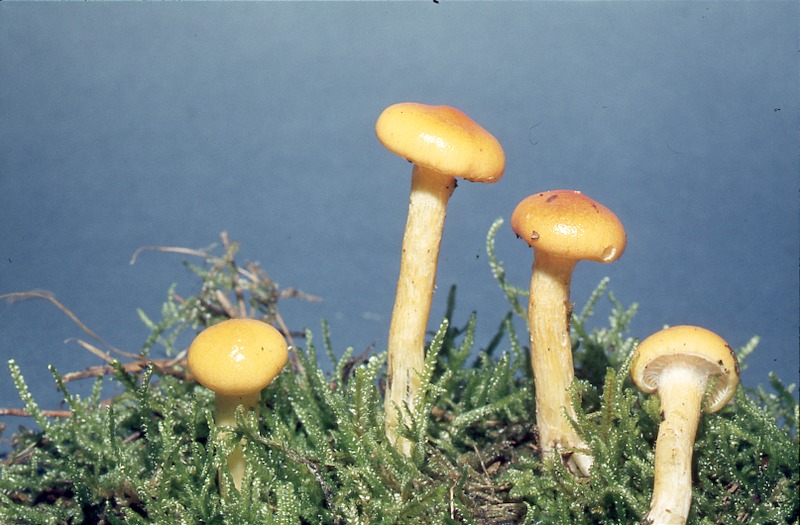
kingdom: Fungi
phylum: Basidiomycota
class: Agaricomycetes
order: Agaricales
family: Hygrophoraceae
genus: Hygrophorus
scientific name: Hygrophorus hypothejus
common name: Herald of winter
